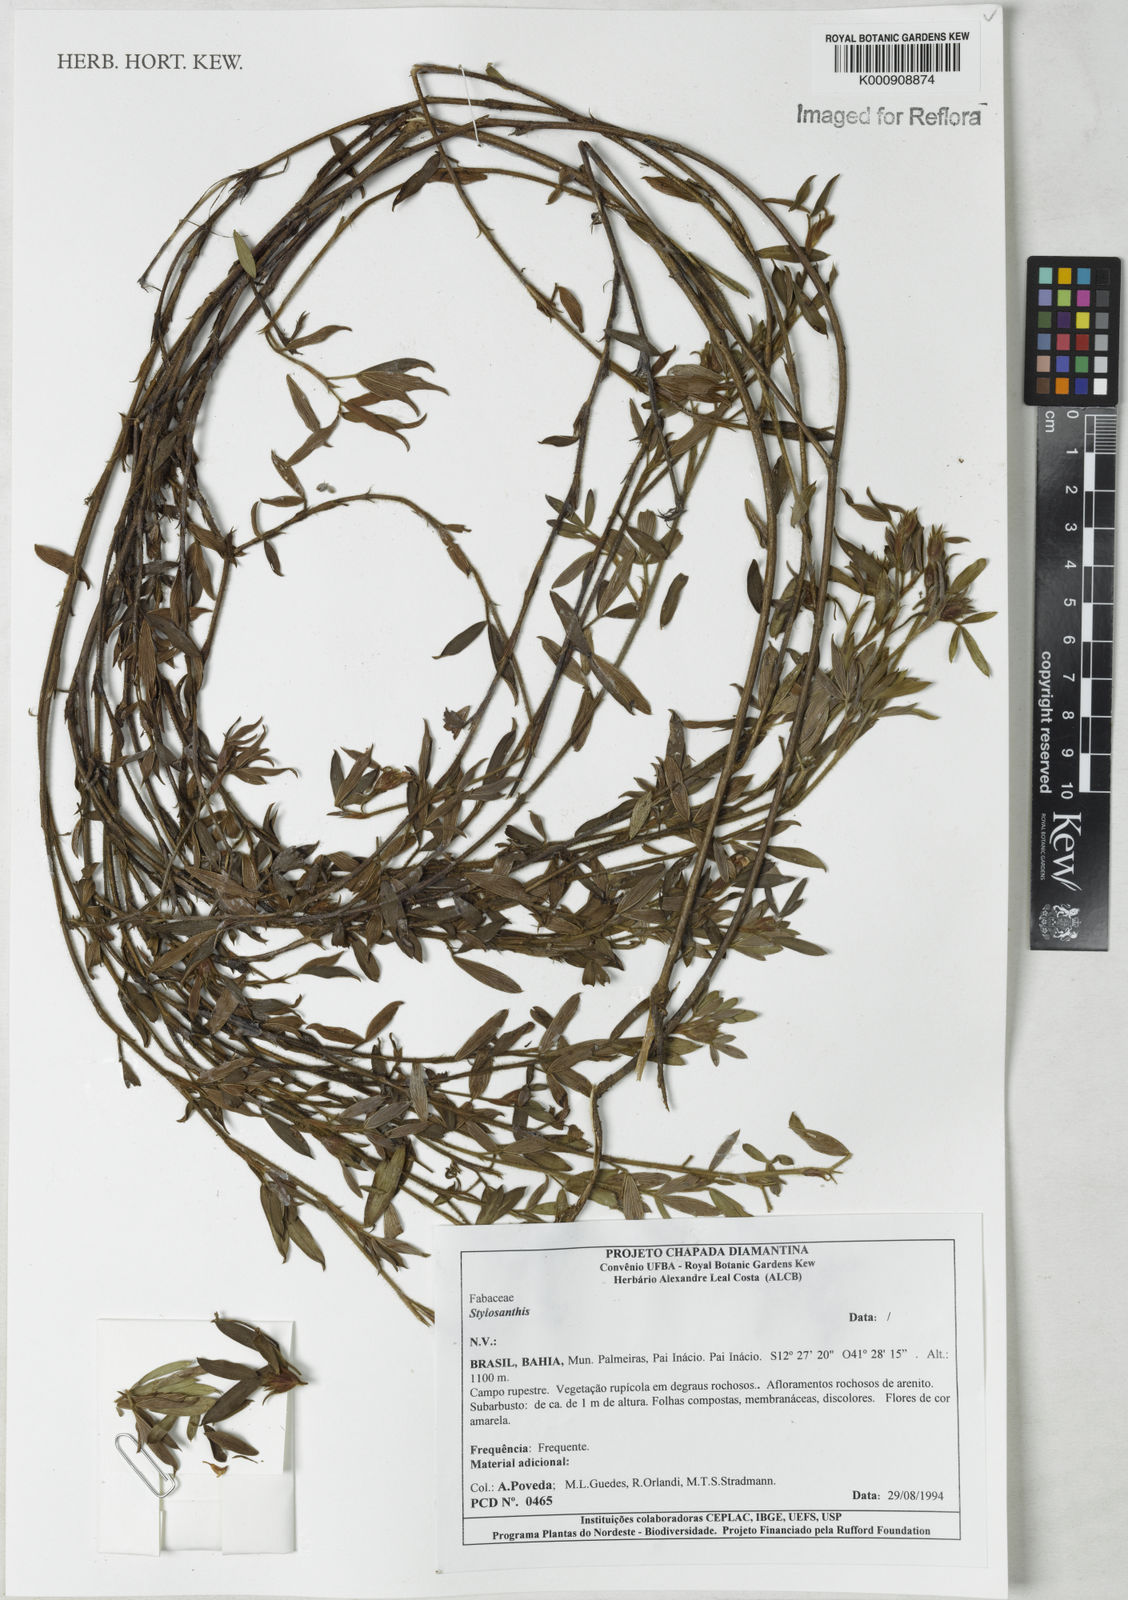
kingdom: Plantae
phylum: Tracheophyta
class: Magnoliopsida
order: Fabales
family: Fabaceae
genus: Stylosanthes
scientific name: Stylosanthes
